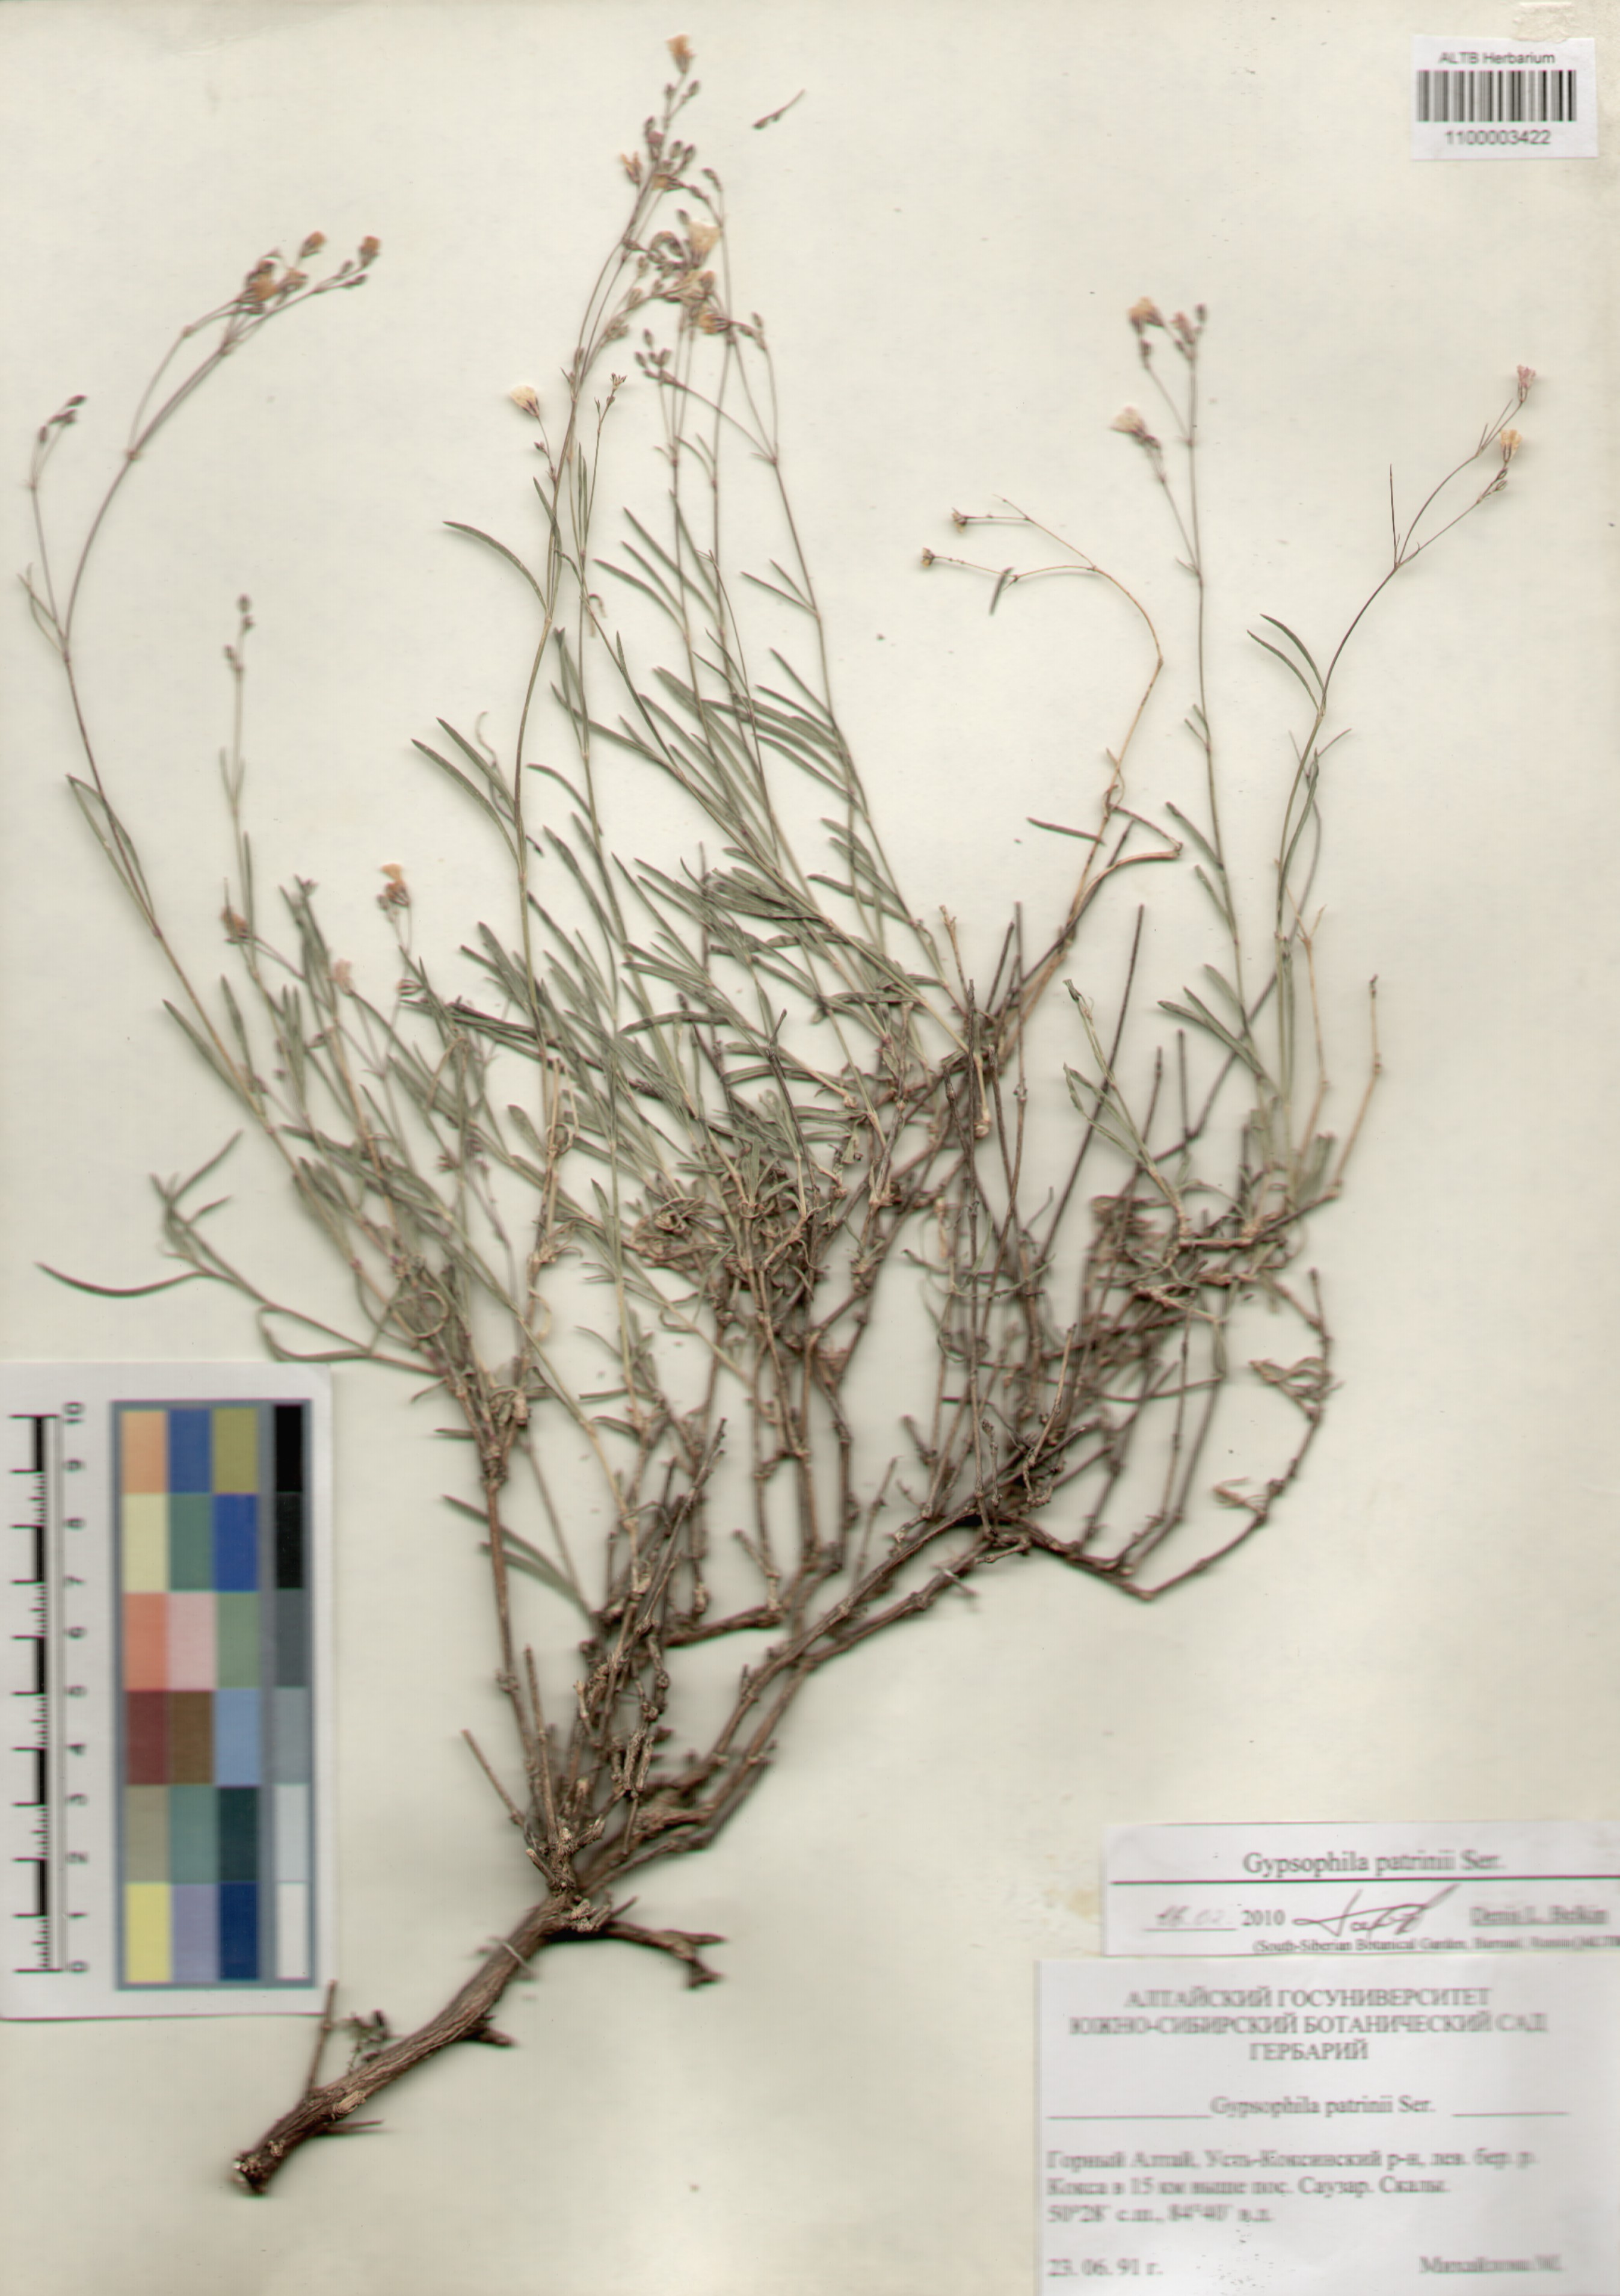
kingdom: Plantae
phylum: Tracheophyta
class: Magnoliopsida
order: Caryophyllales
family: Caryophyllaceae
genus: Gypsophila
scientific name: Gypsophila patrinii
